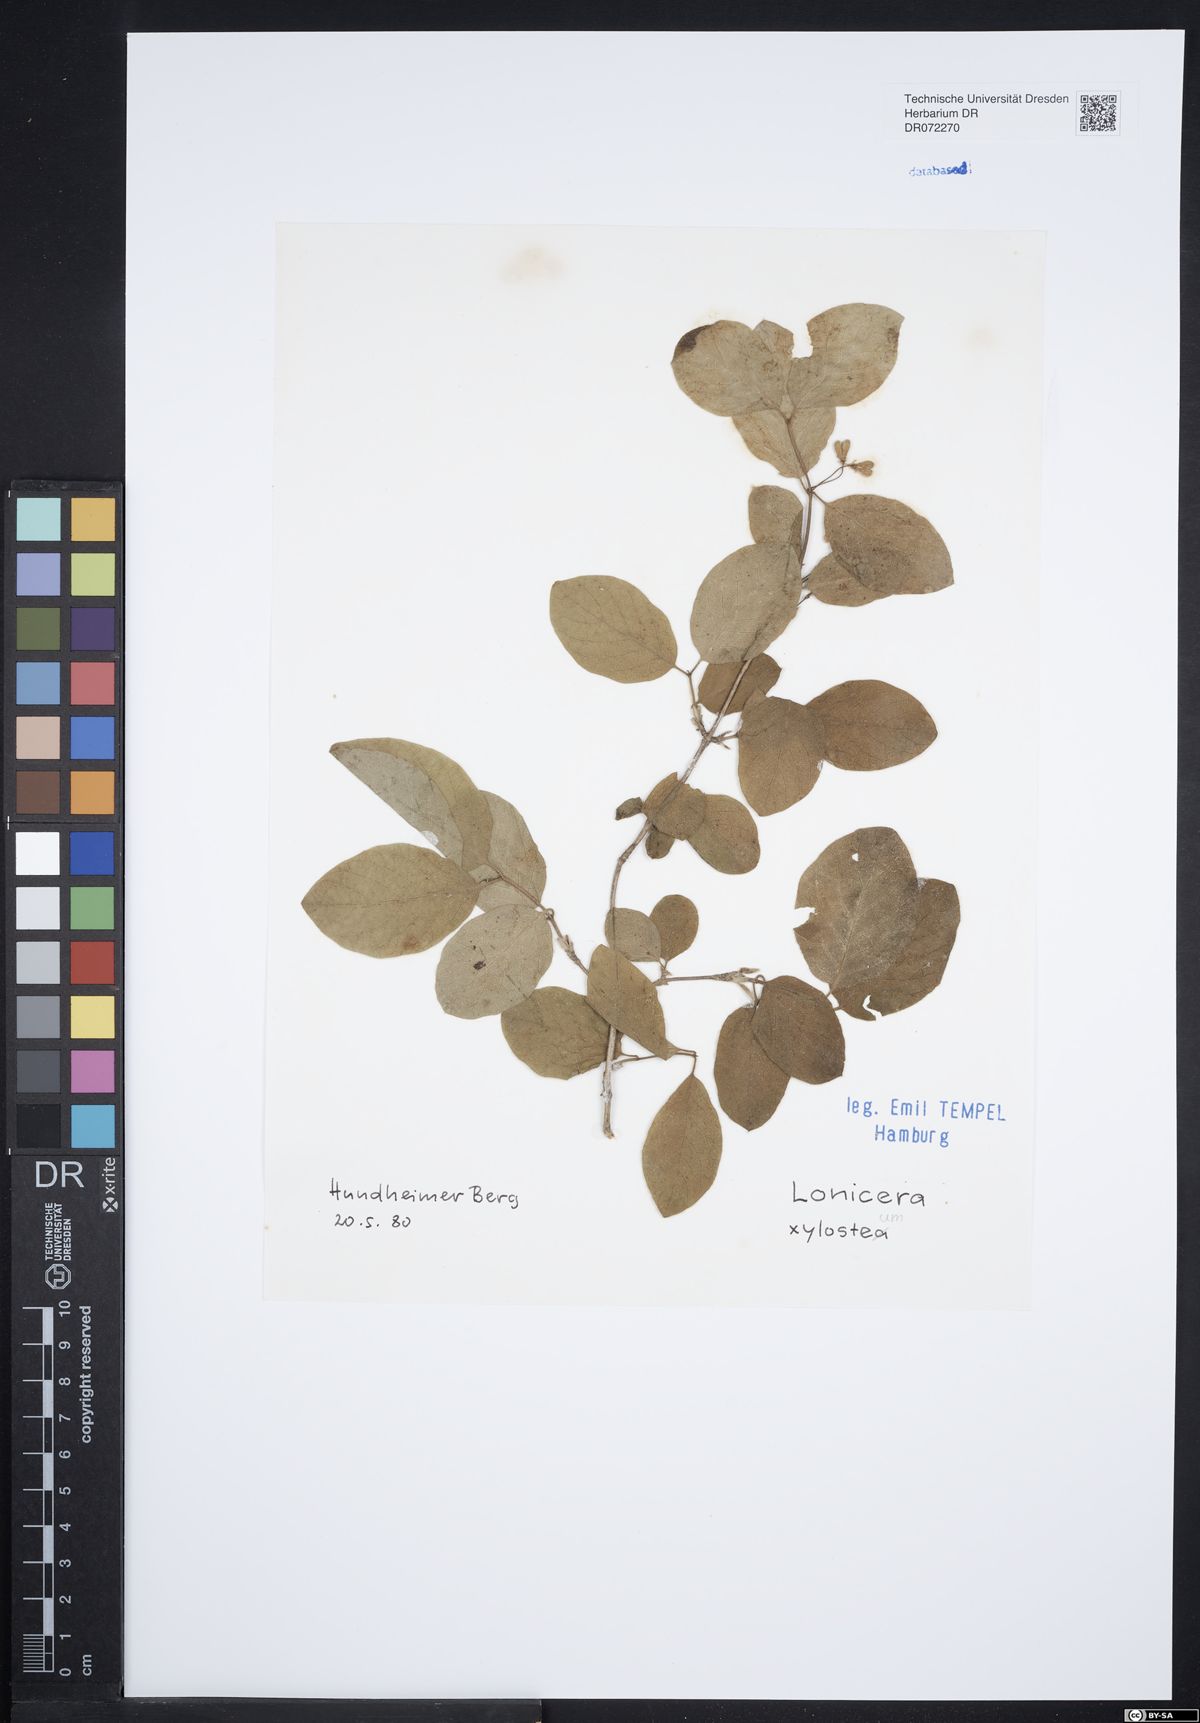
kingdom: Plantae
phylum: Tracheophyta
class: Magnoliopsida
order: Dipsacales
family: Caprifoliaceae
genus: Lonicera
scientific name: Lonicera xylosteum
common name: Fly honeysuckle
